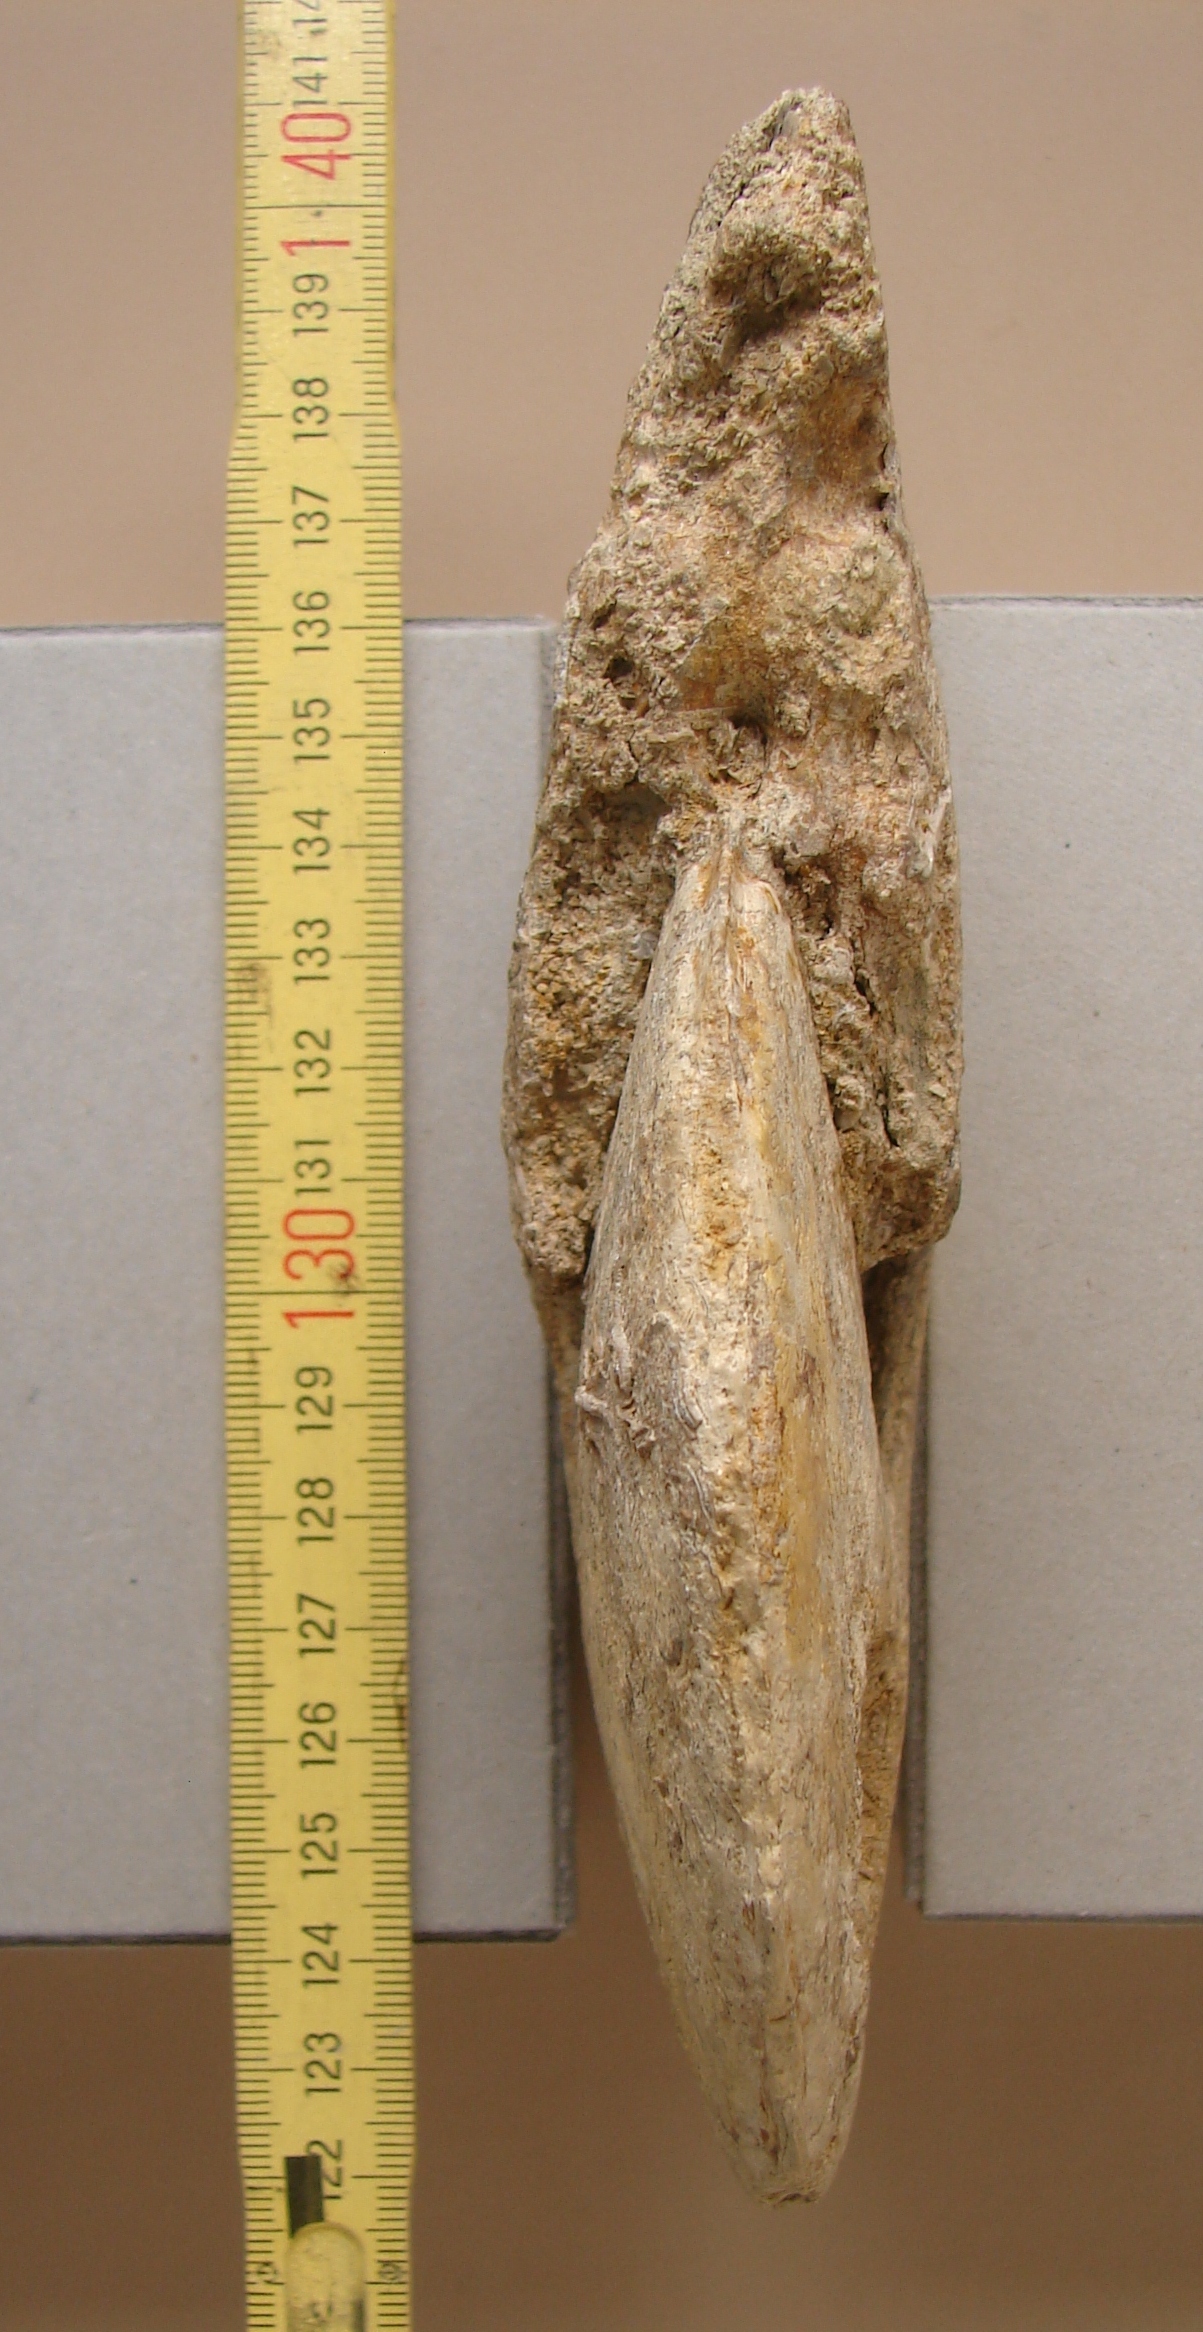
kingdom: Animalia
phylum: Mollusca
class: Cephalopoda
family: Graphoceratidae
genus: Hyperlioceras
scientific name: Hyperlioceras
